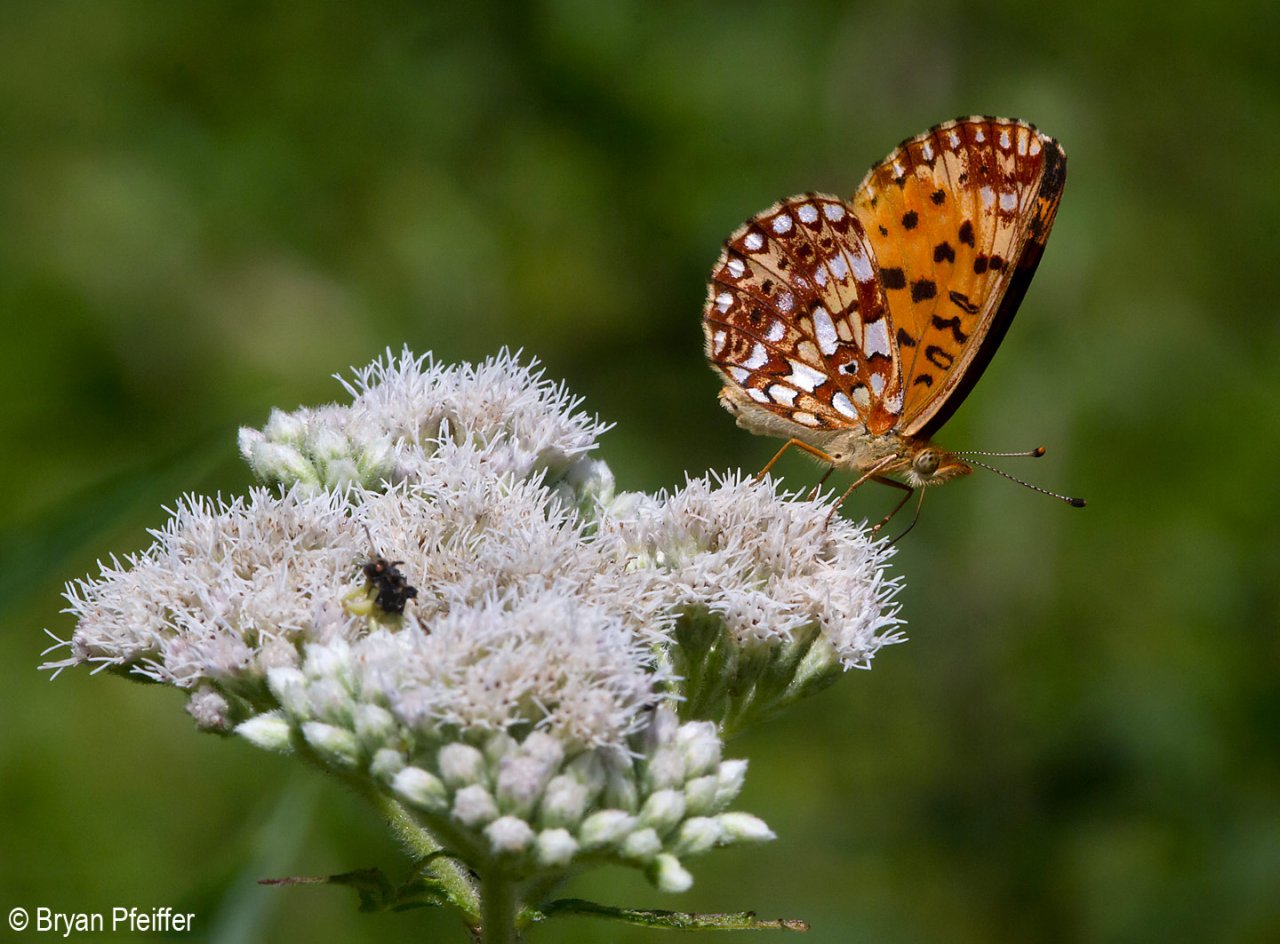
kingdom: Animalia
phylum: Arthropoda
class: Insecta
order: Lepidoptera
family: Nymphalidae
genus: Boloria
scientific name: Boloria selene
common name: Silver-bordered Fritillary
